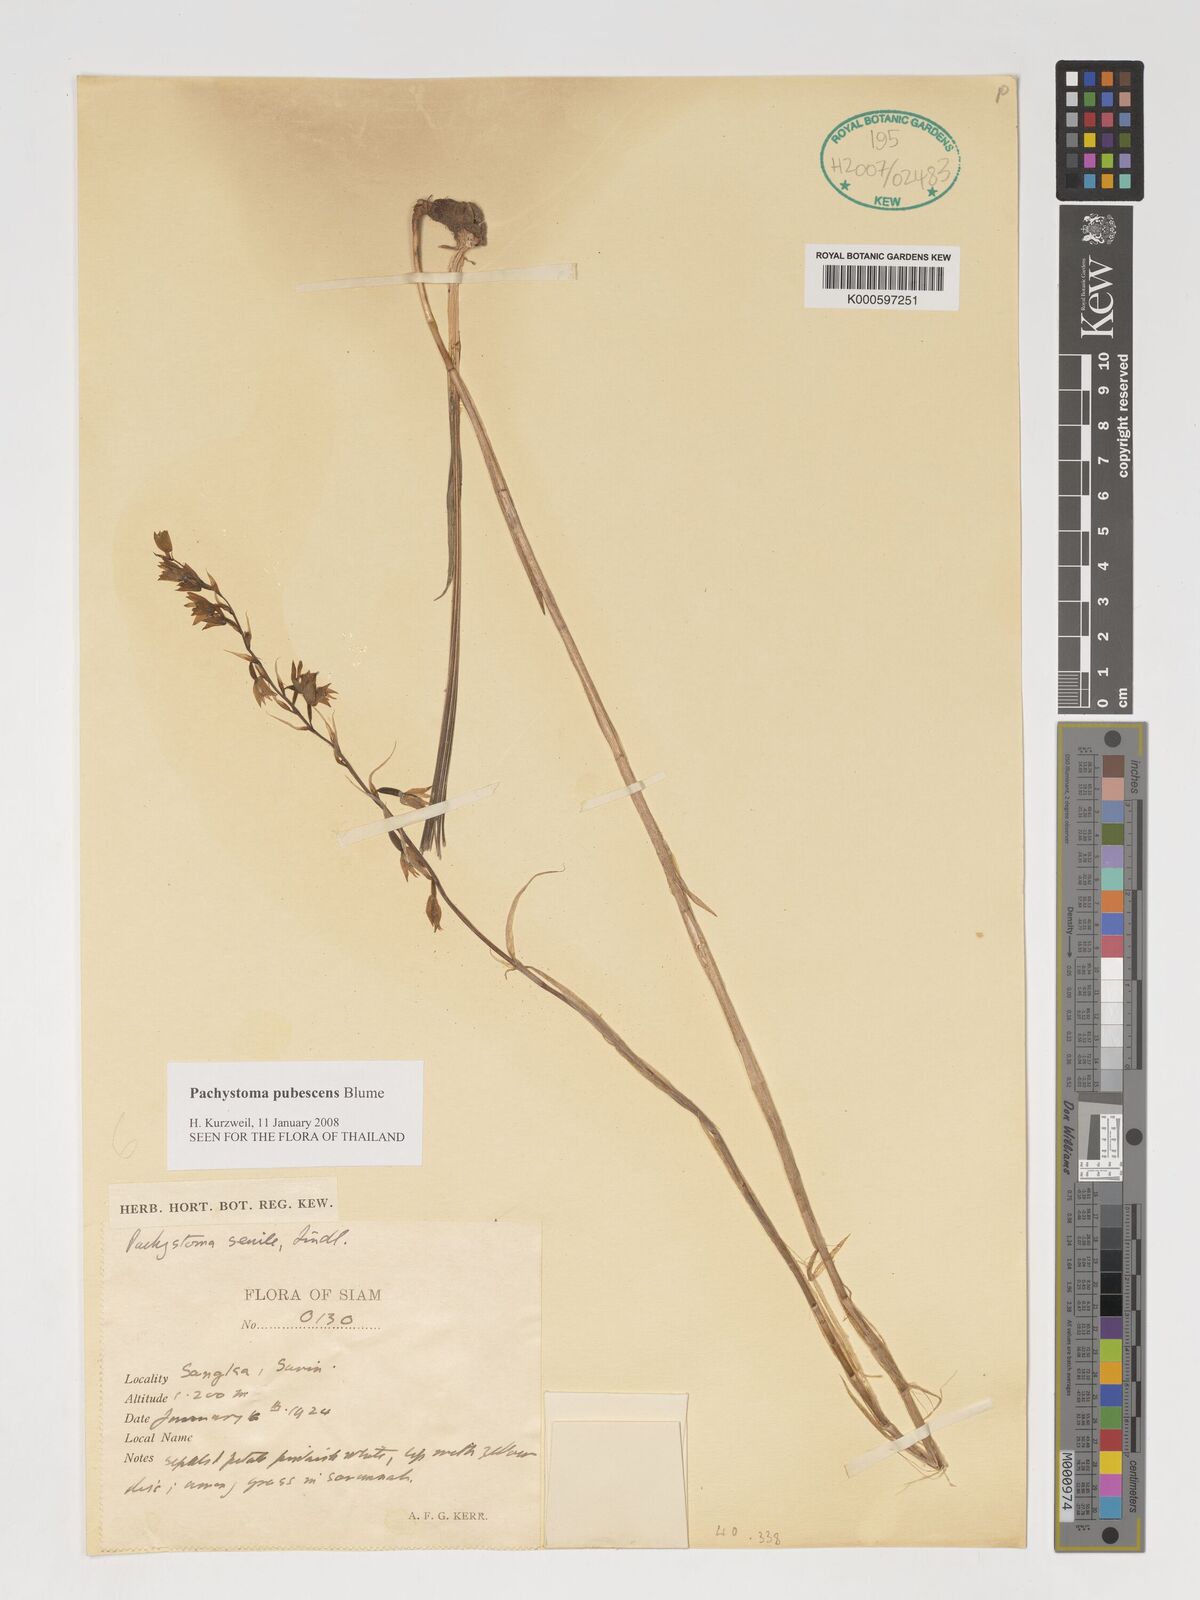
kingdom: Plantae
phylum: Tracheophyta
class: Liliopsida
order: Asparagales
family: Orchidaceae
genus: Pachystoma
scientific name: Pachystoma pubescens
